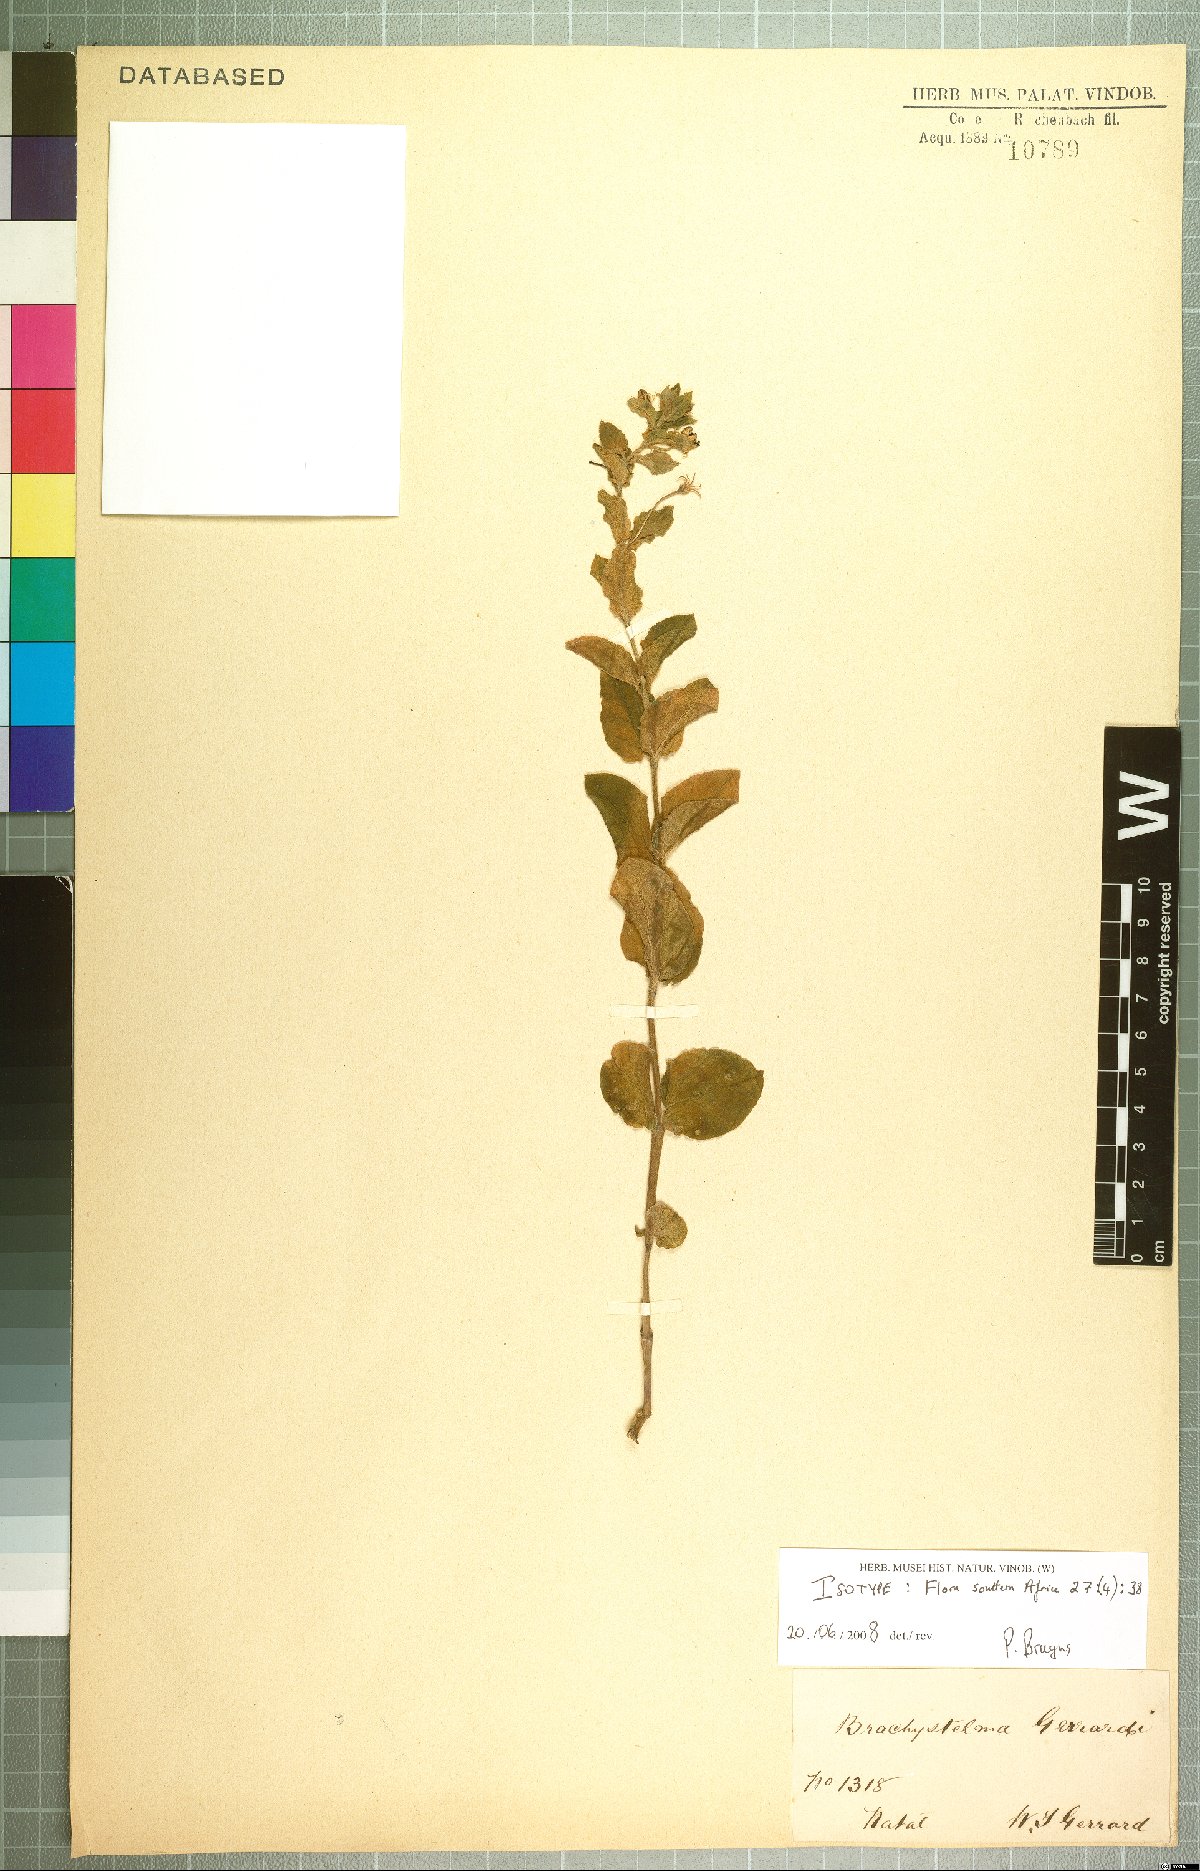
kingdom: Plantae
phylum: Tracheophyta
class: Magnoliopsida
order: Gentianales
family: Apocynaceae
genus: Ceropegia
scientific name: Ceropegia gerrardii
